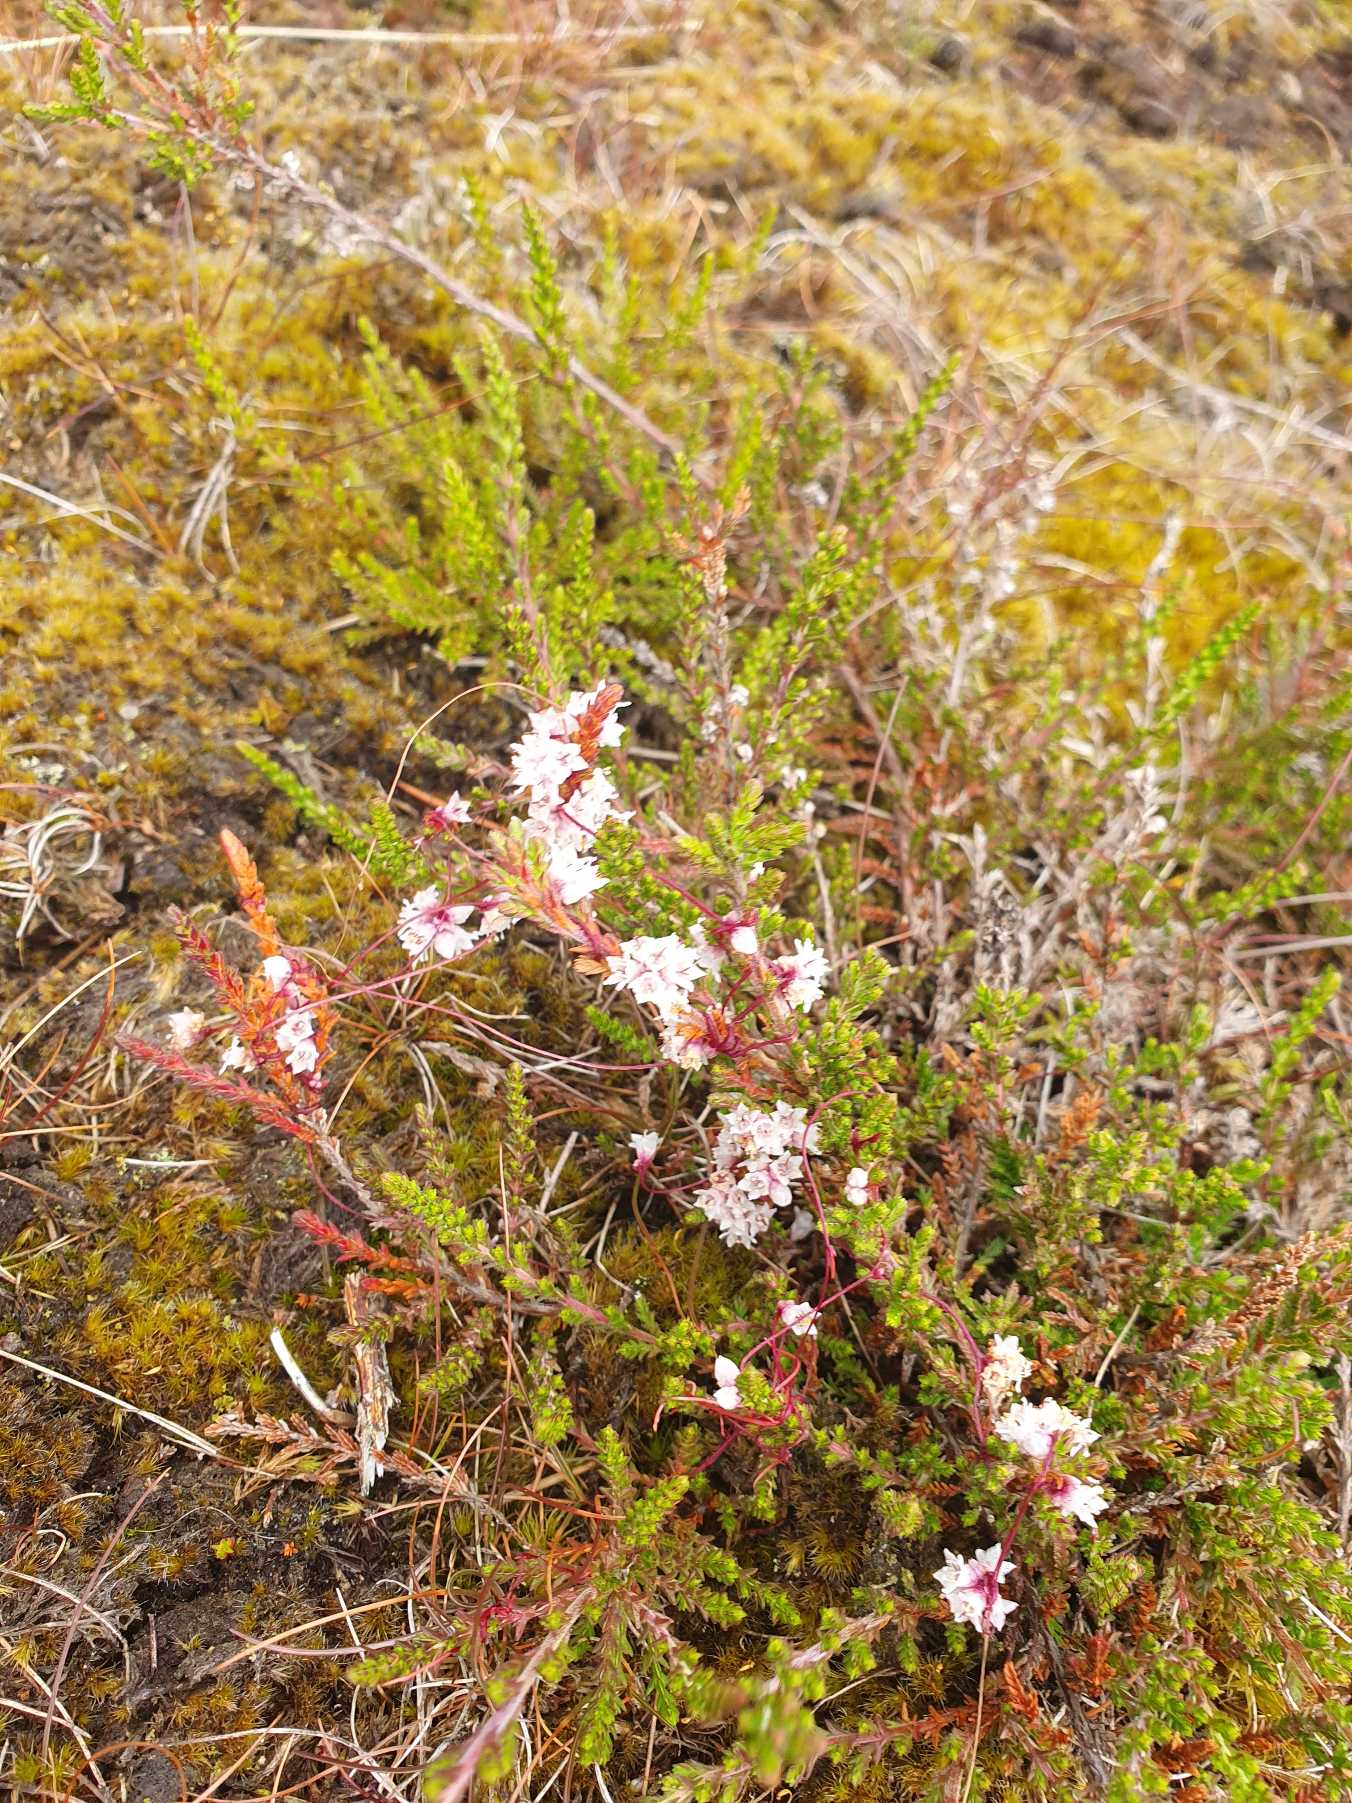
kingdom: Plantae
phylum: Tracheophyta
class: Magnoliopsida
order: Solanales
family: Convolvulaceae
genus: Cuscuta
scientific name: Cuscuta epithymum
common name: Lyng-silke
